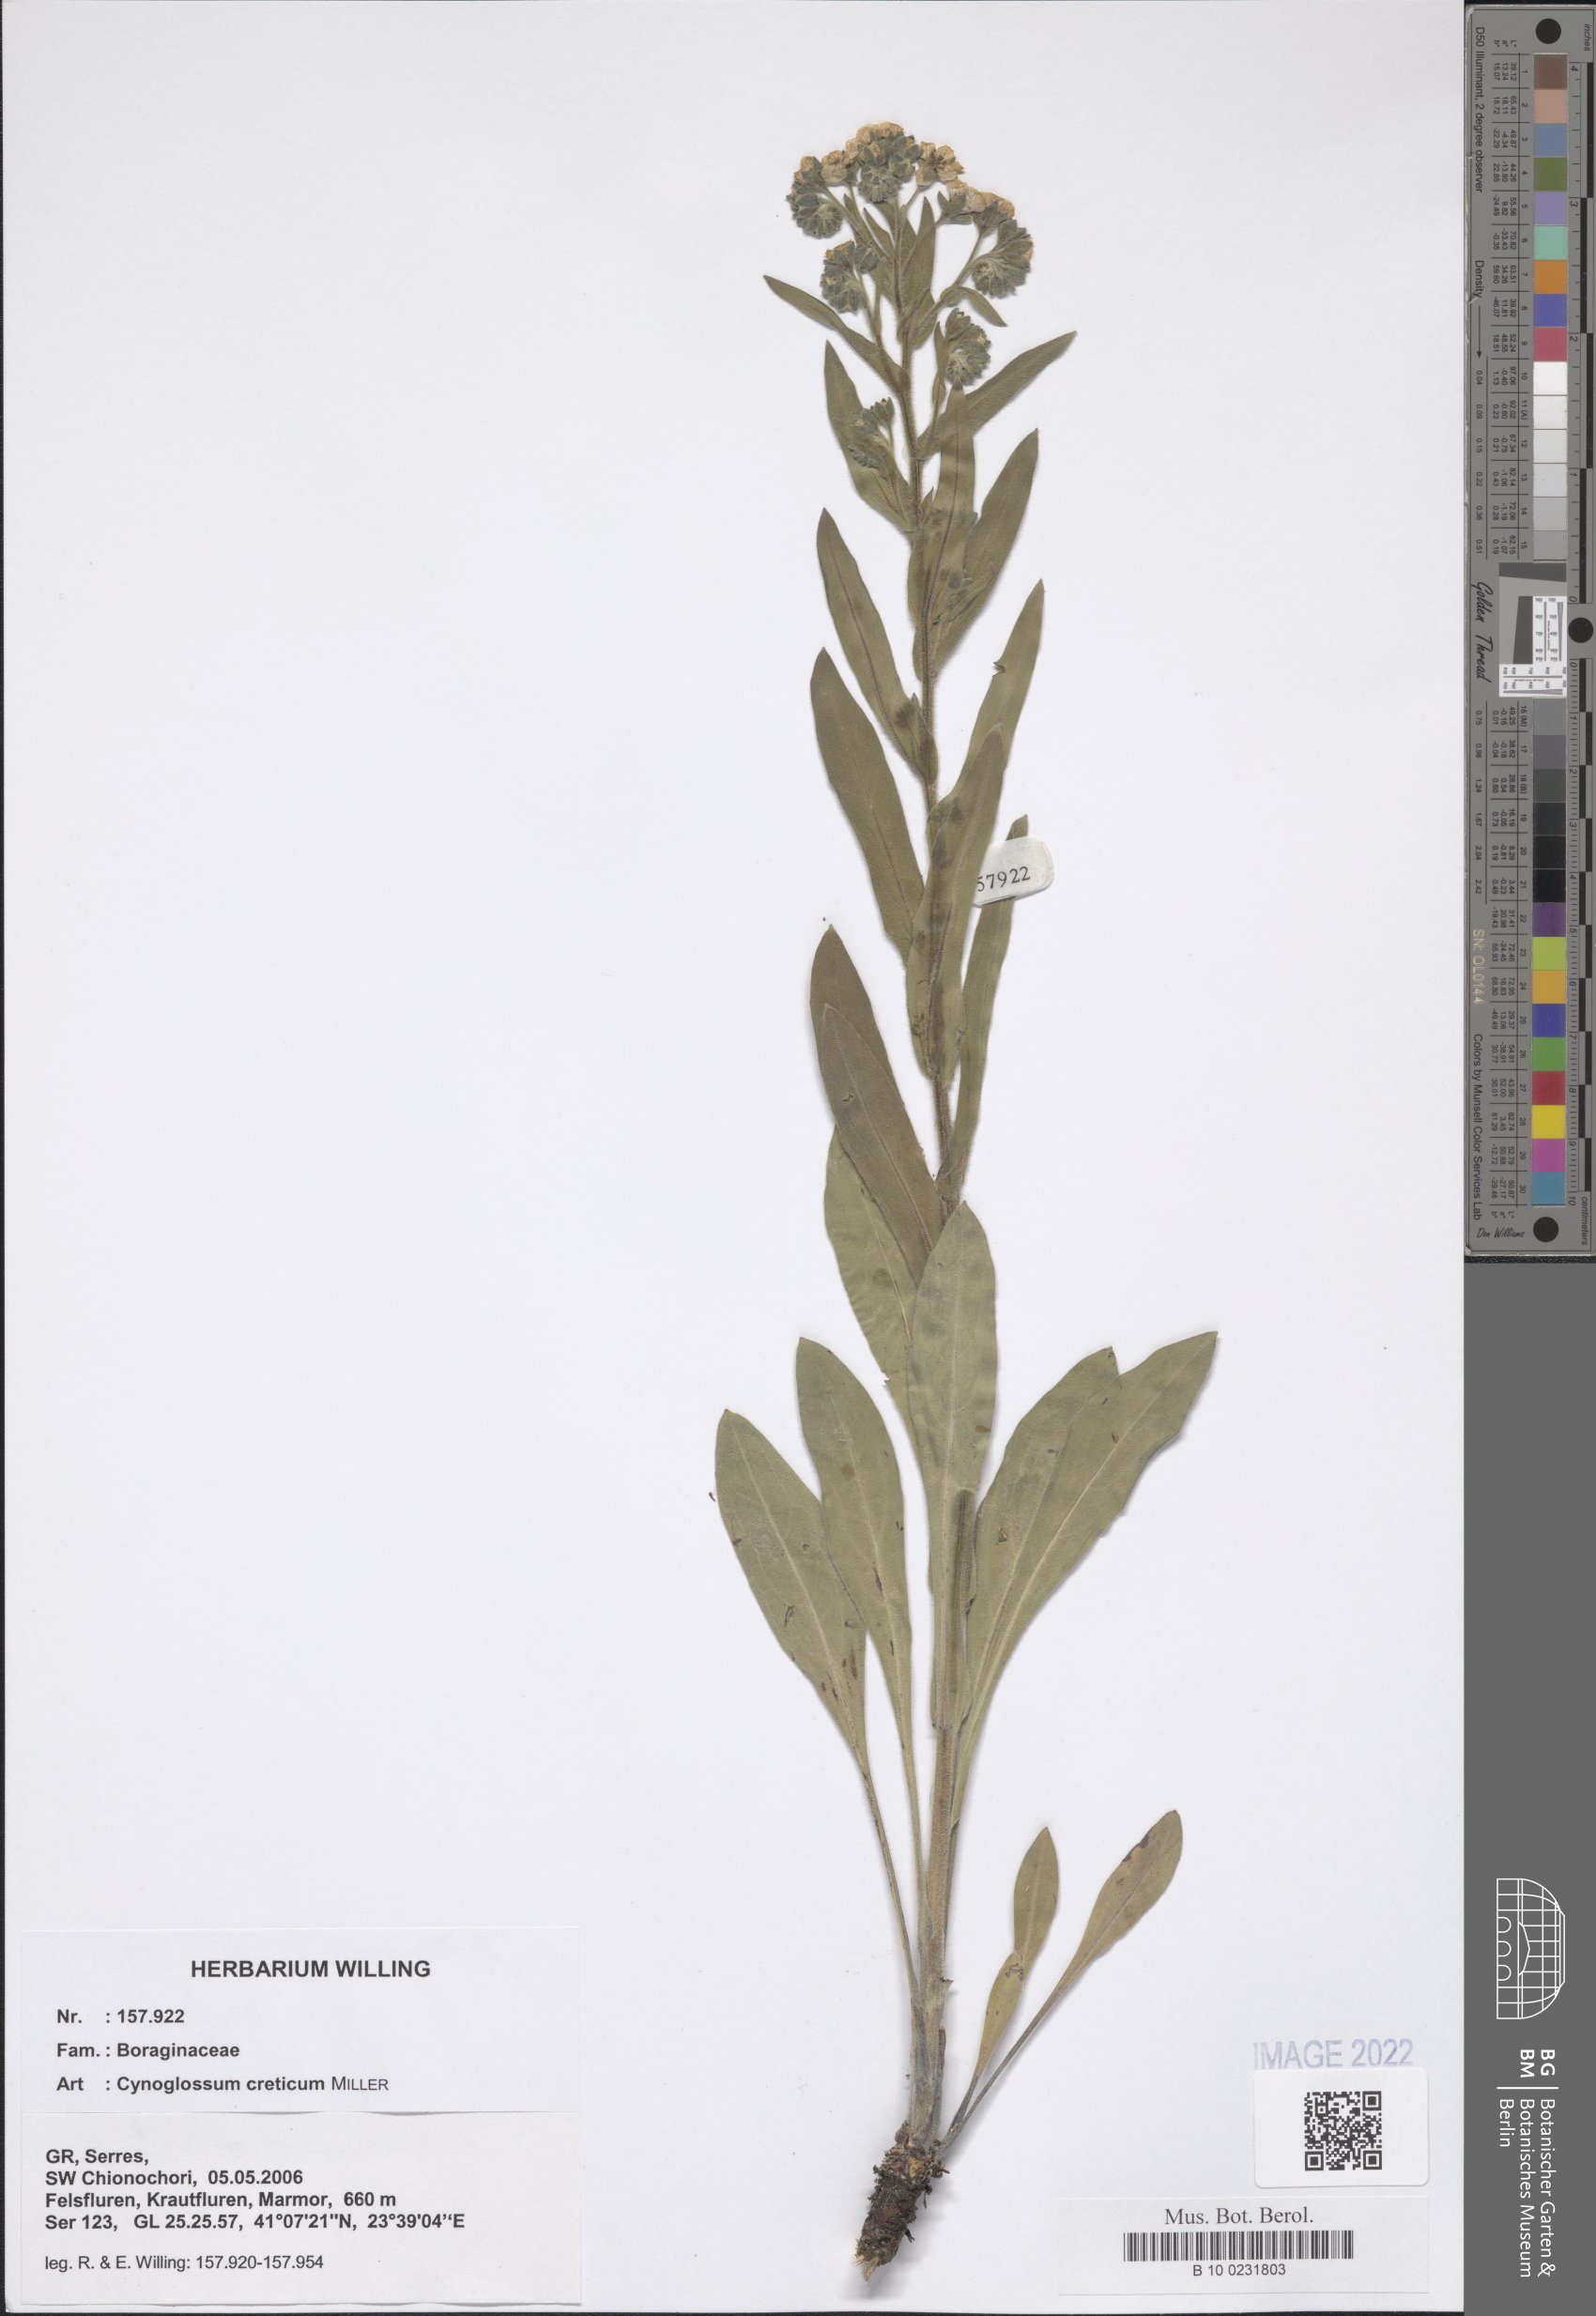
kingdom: Plantae
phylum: Tracheophyta
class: Magnoliopsida
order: Boraginales
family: Boraginaceae
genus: Cynoglossum
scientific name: Cynoglossum creticum
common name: Blue hound's tongue
